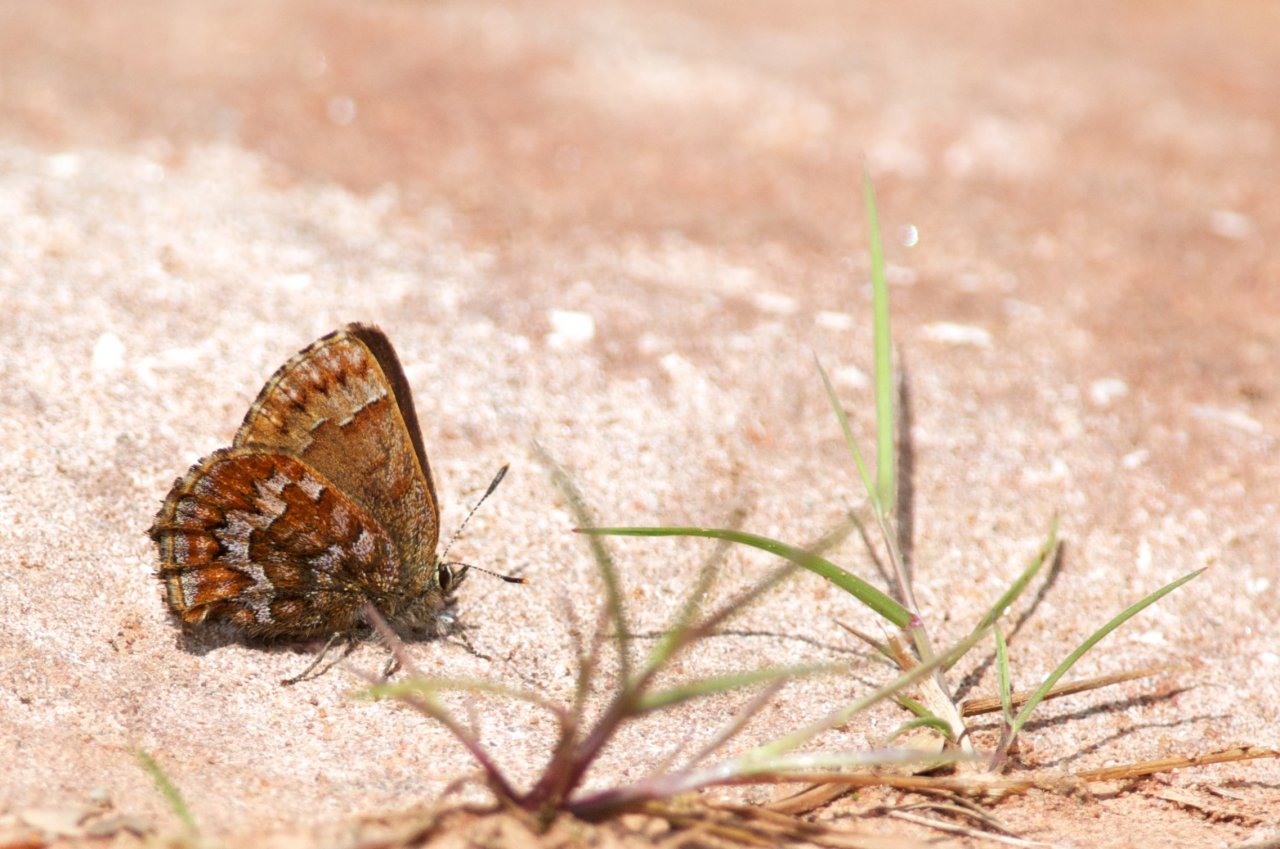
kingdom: Animalia
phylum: Arthropoda
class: Insecta
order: Lepidoptera
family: Lycaenidae
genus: Incisalia
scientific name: Incisalia niphon
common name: Eastern Pine Elfin
